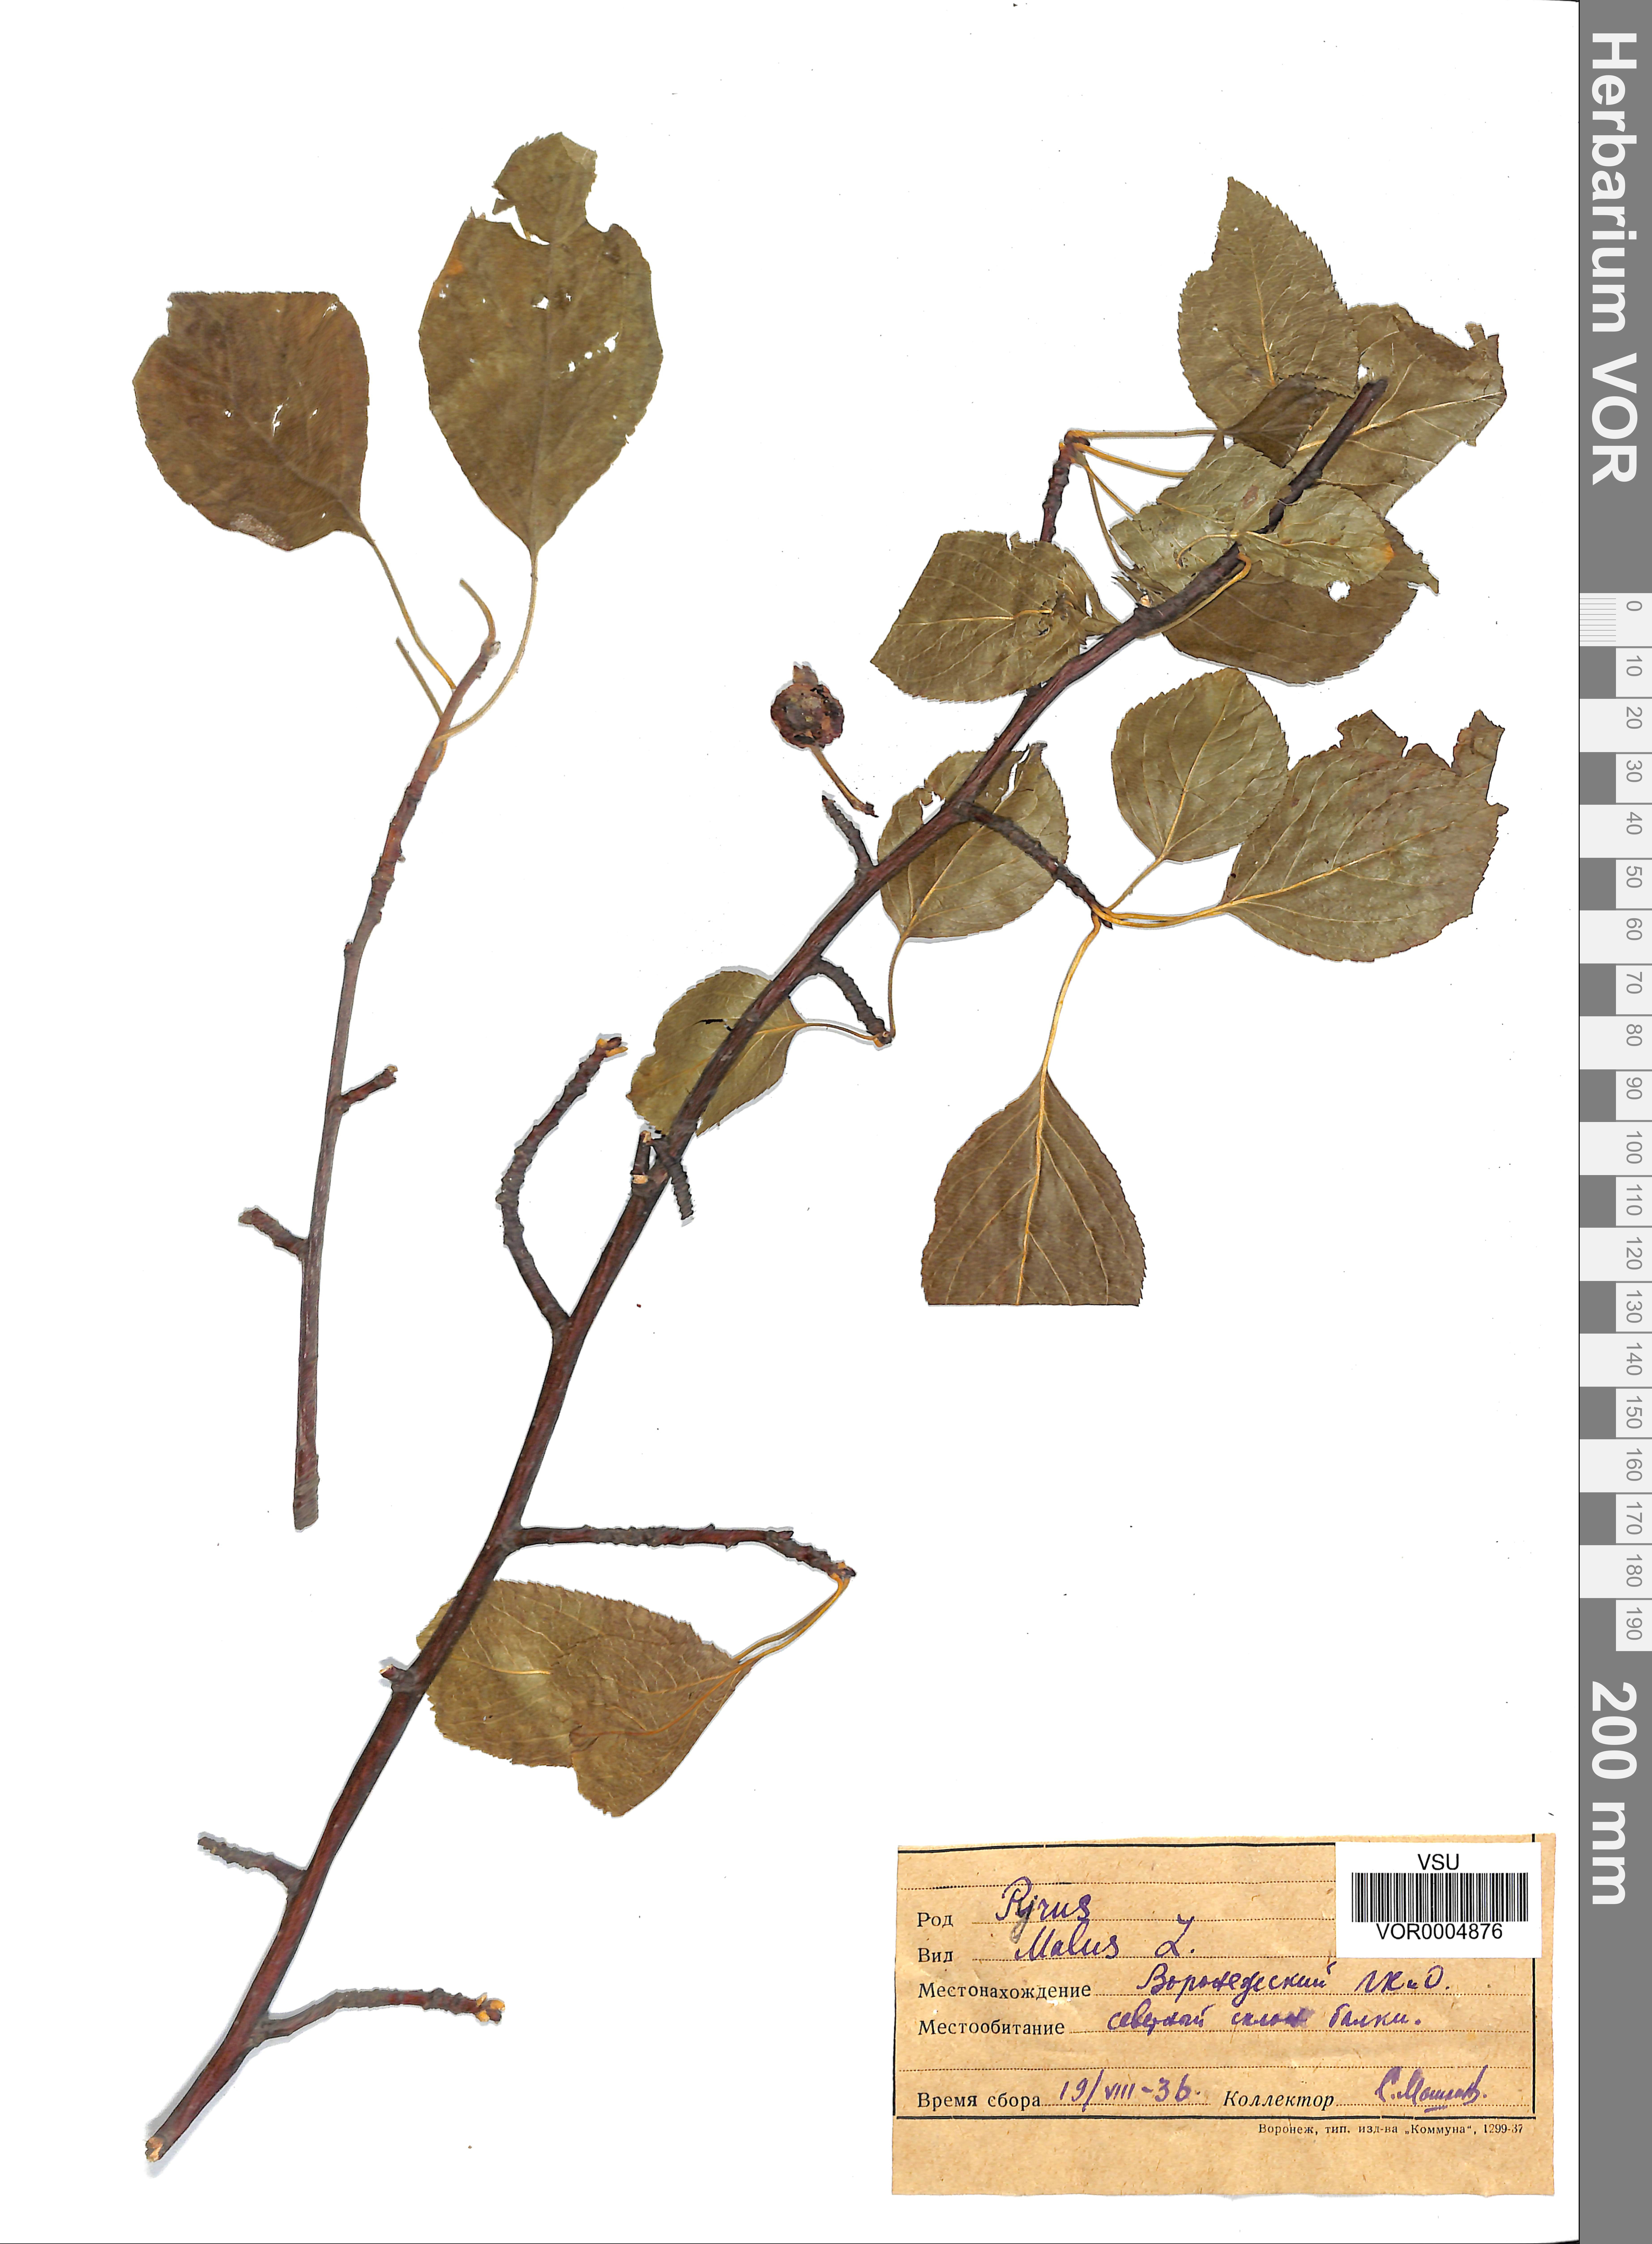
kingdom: Plantae
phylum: Tracheophyta
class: Magnoliopsida
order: Rosales
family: Rosaceae
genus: Malus
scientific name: Malus domestica
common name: Apple
